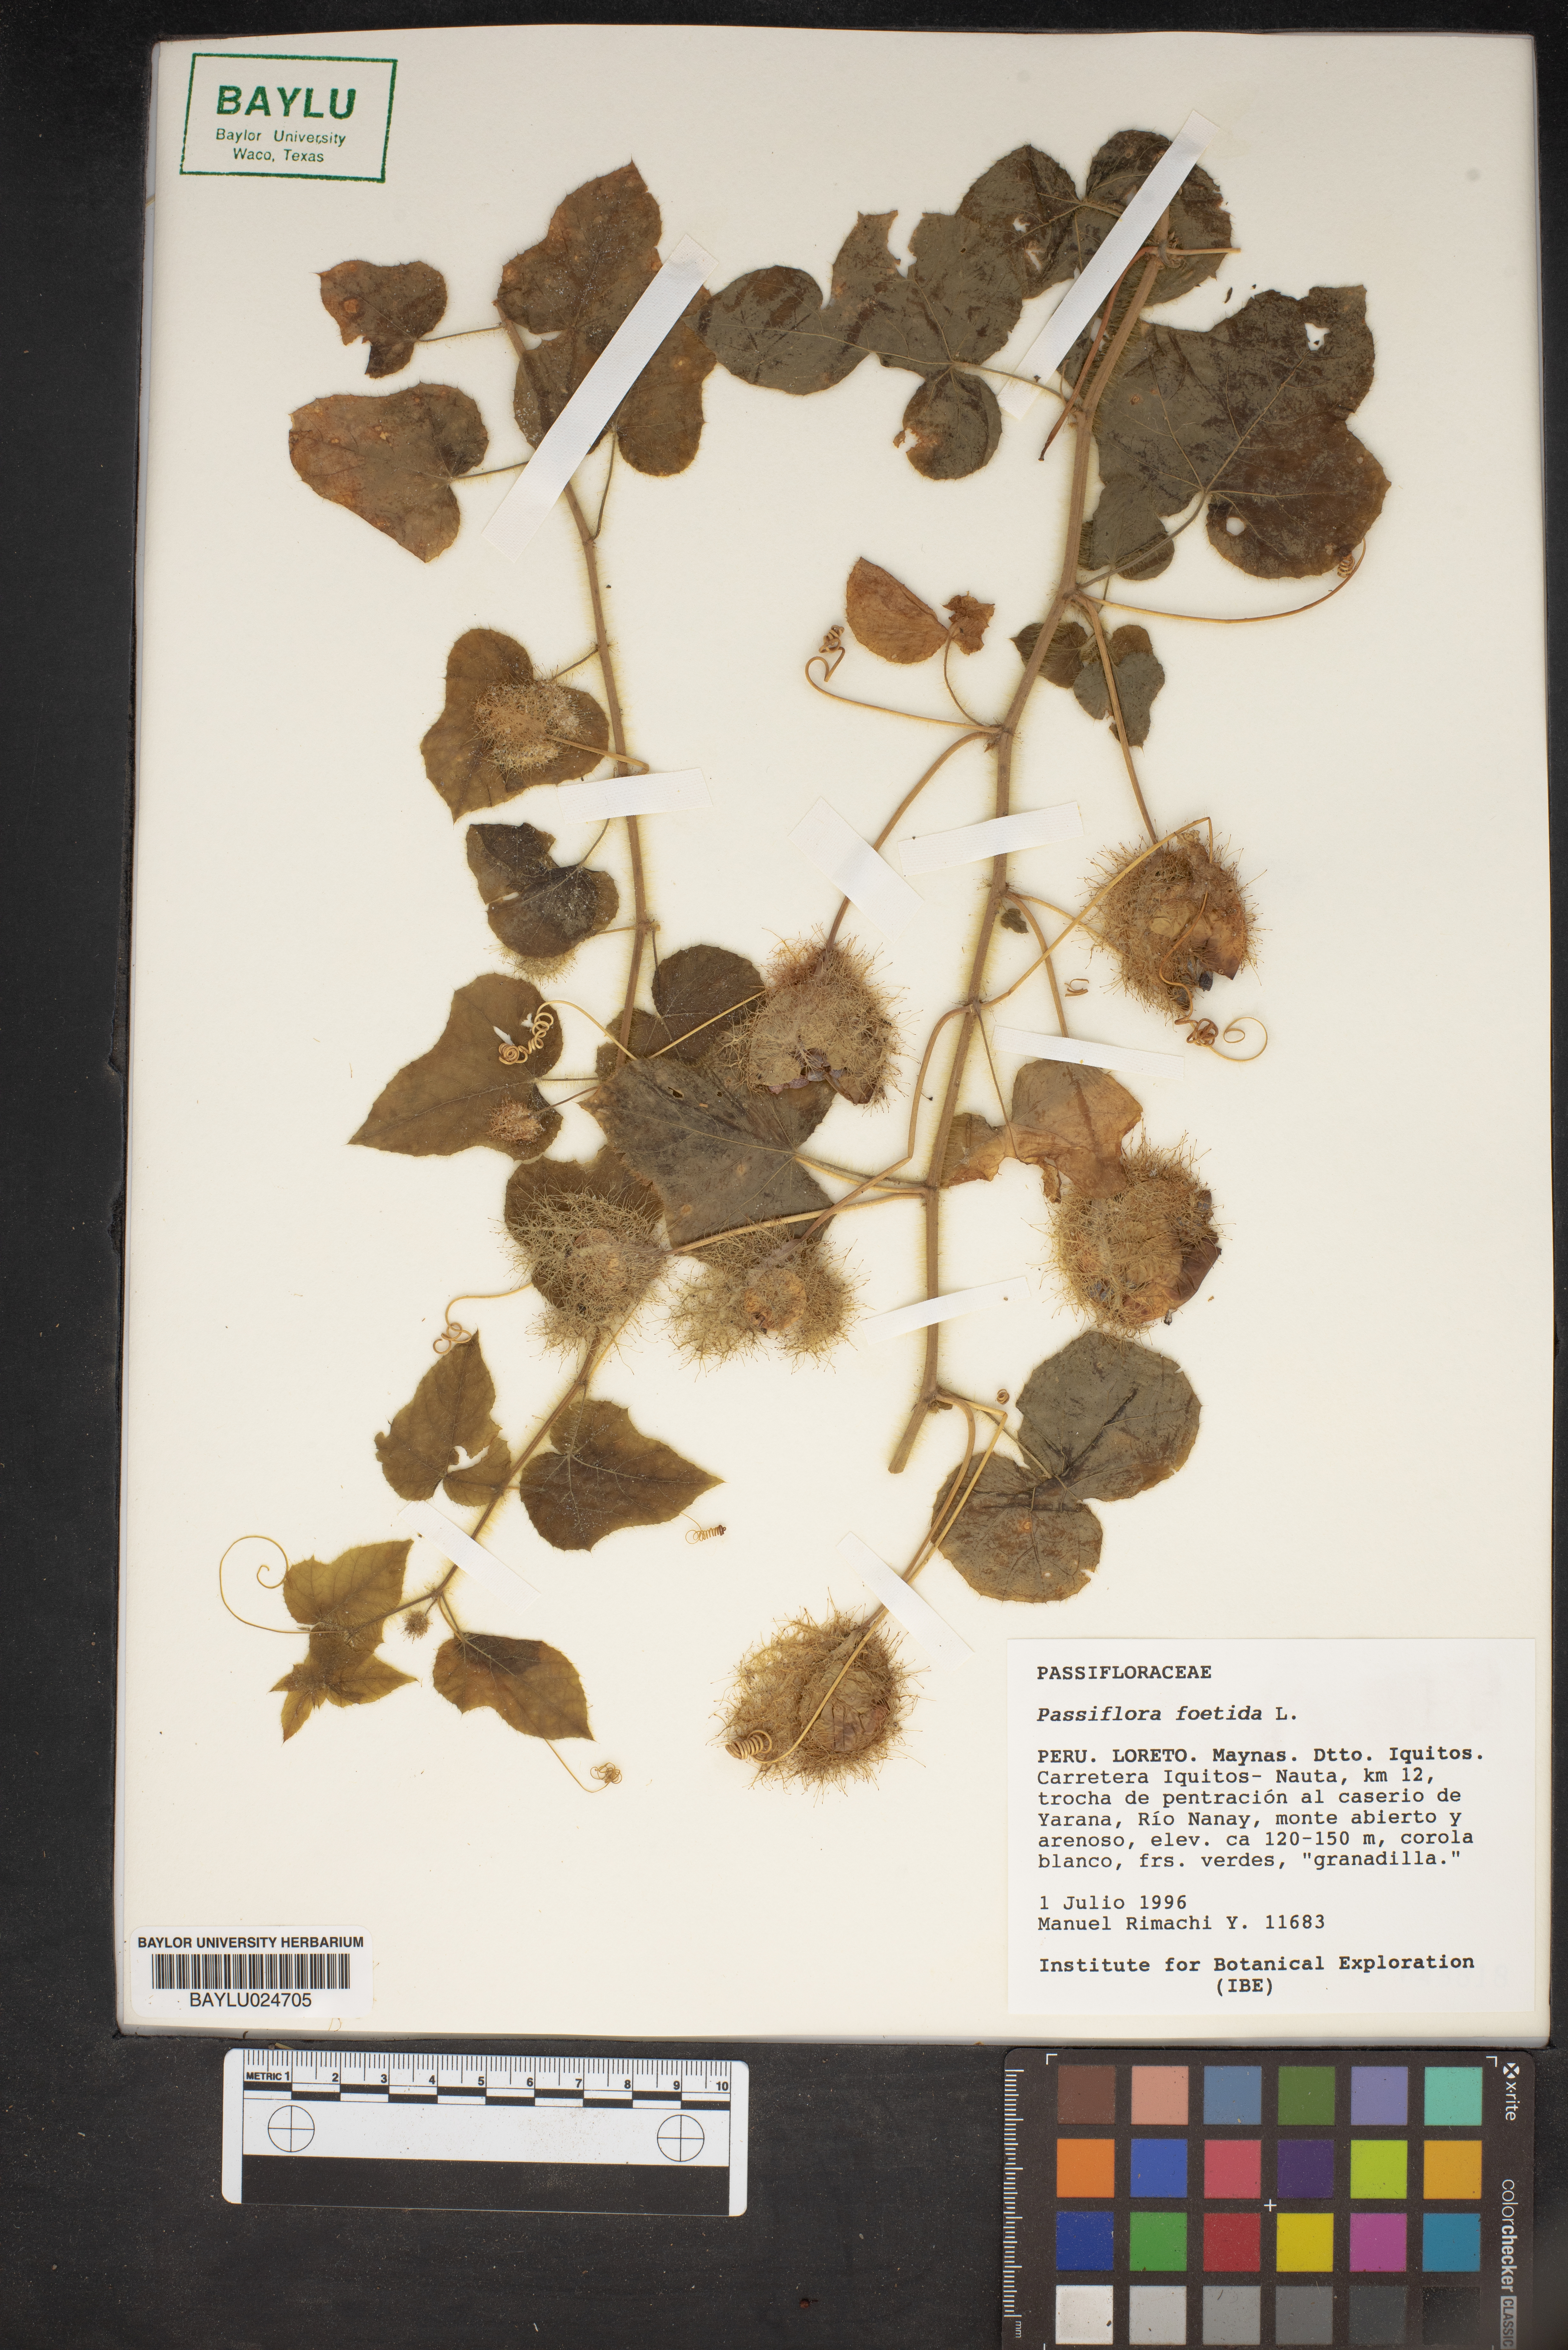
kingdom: Plantae
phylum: Tracheophyta
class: Magnoliopsida
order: Malpighiales
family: Passifloraceae
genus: Passiflora
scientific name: Passiflora foetida
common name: Fetid passionflower
